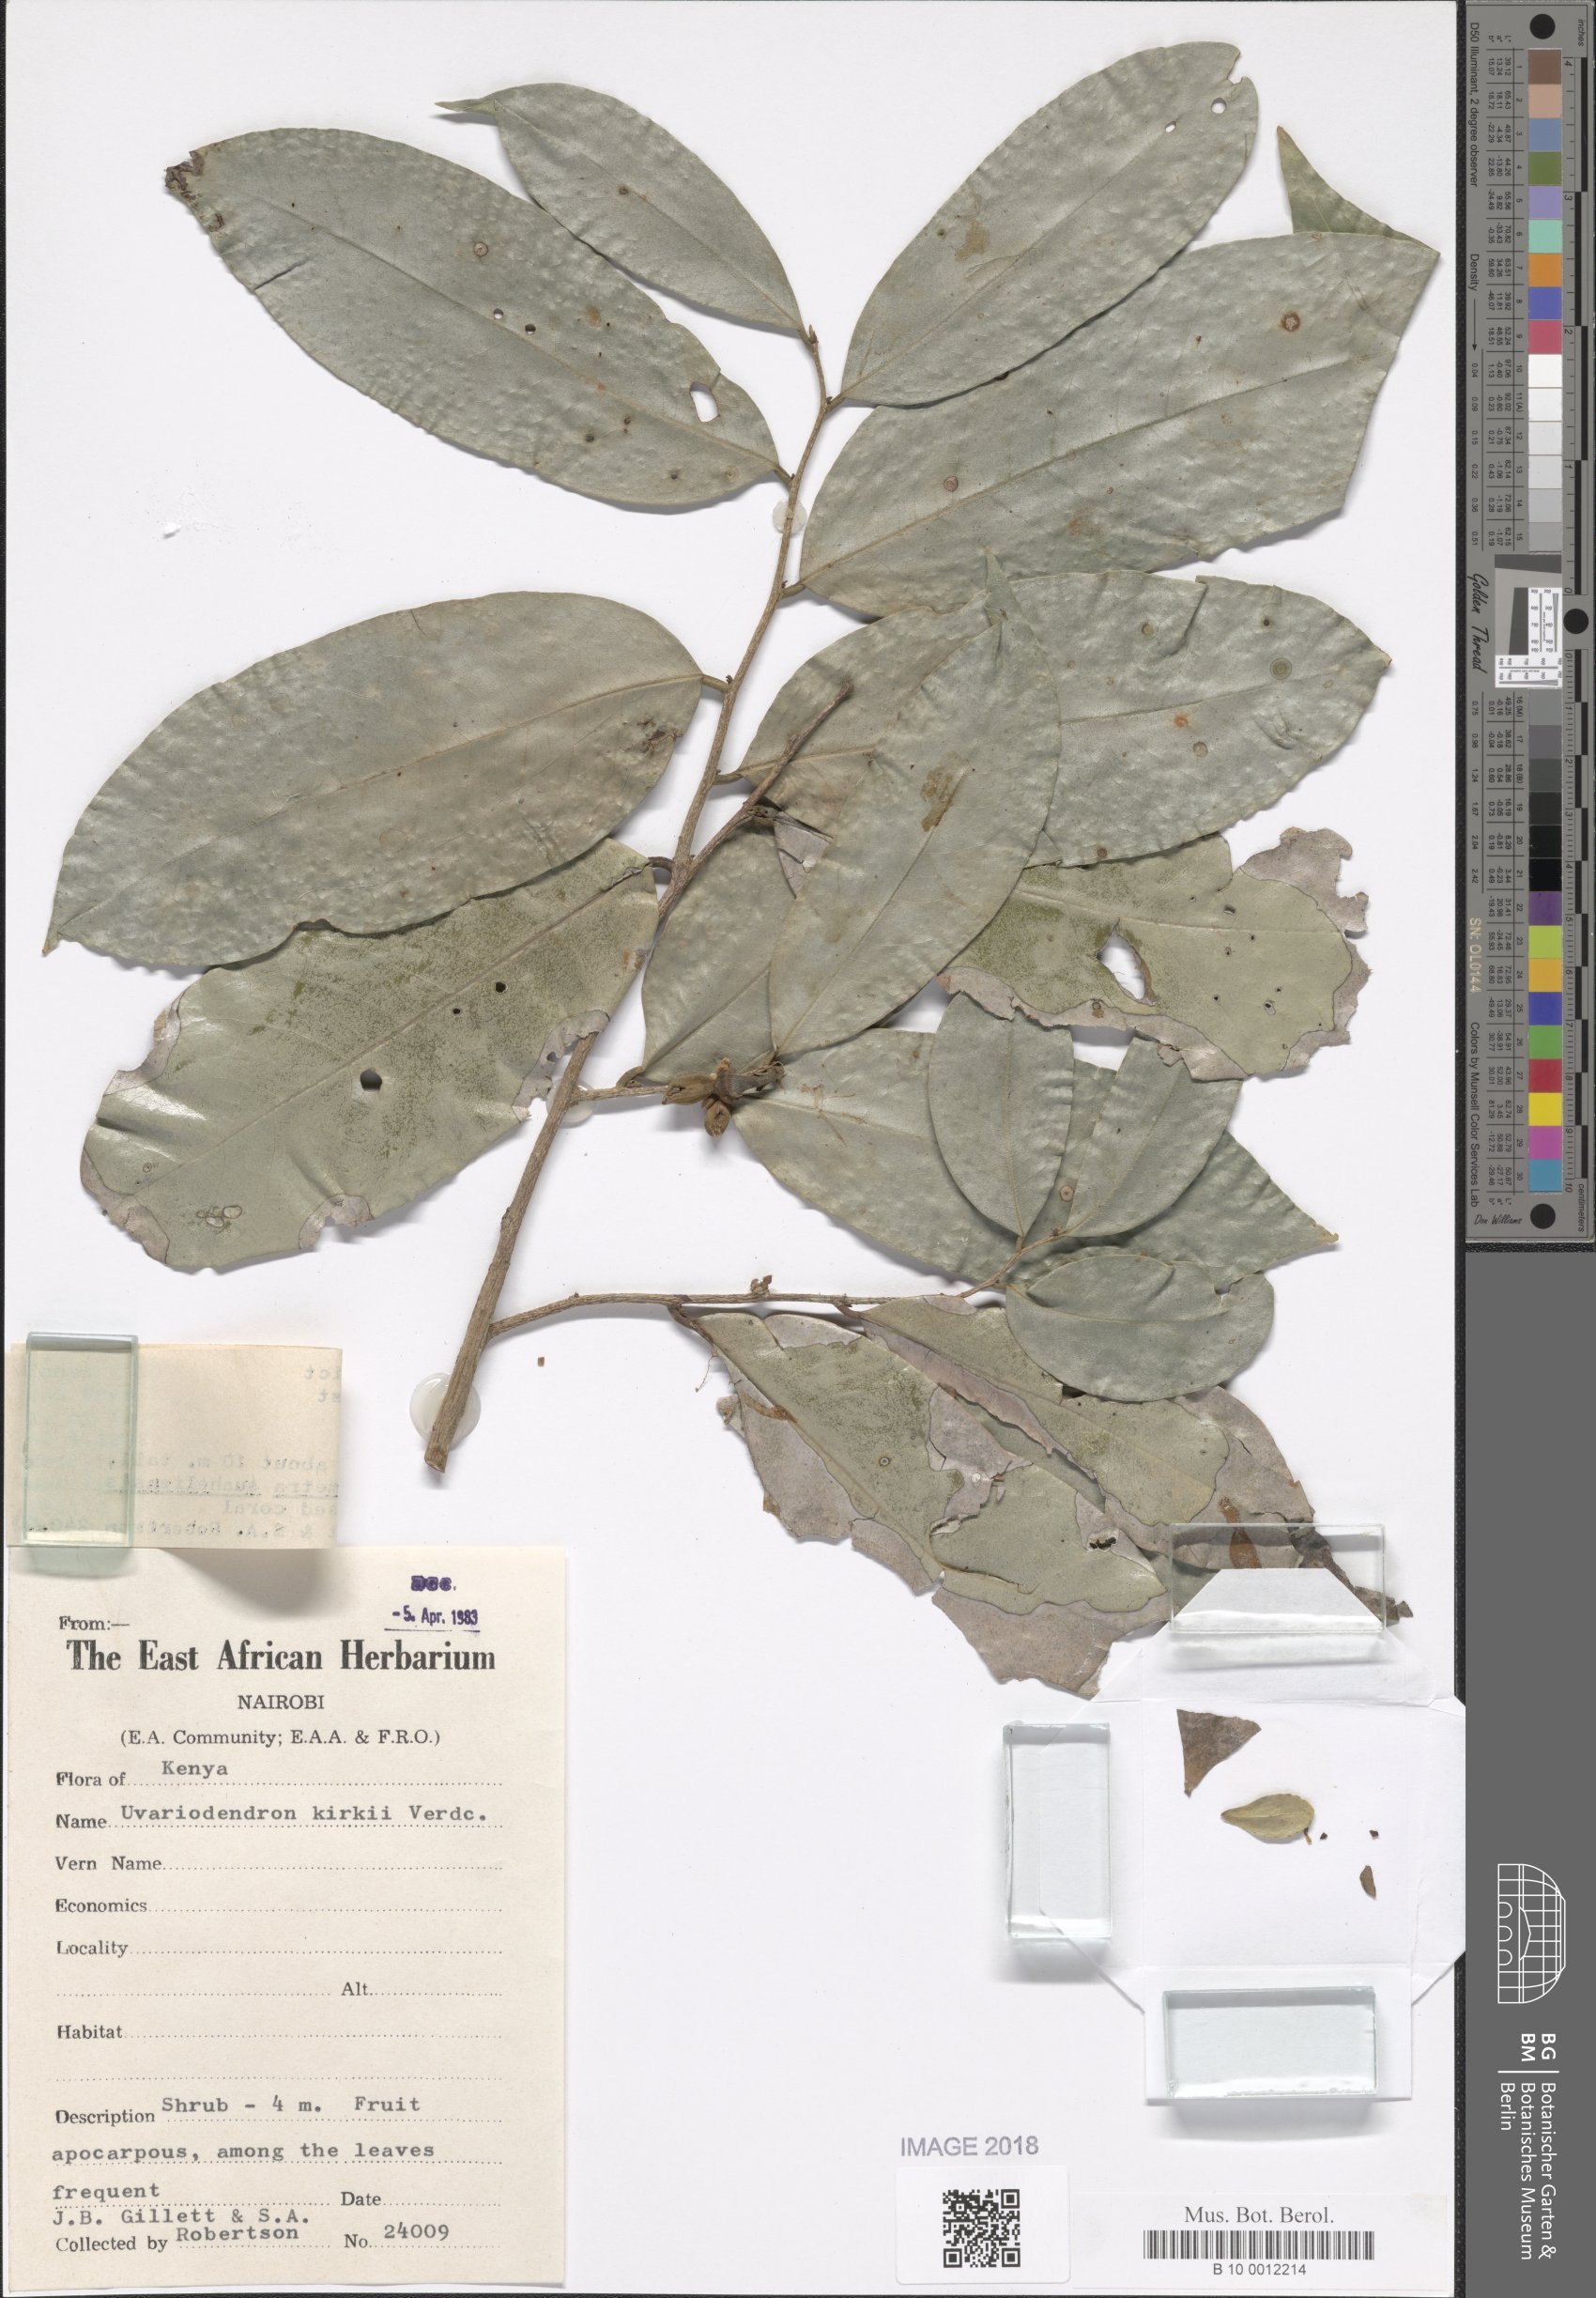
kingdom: Plantae
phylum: Tracheophyta
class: Magnoliopsida
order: Magnoliales
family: Annonaceae
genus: Uvariodendron
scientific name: Uvariodendron kirkii
